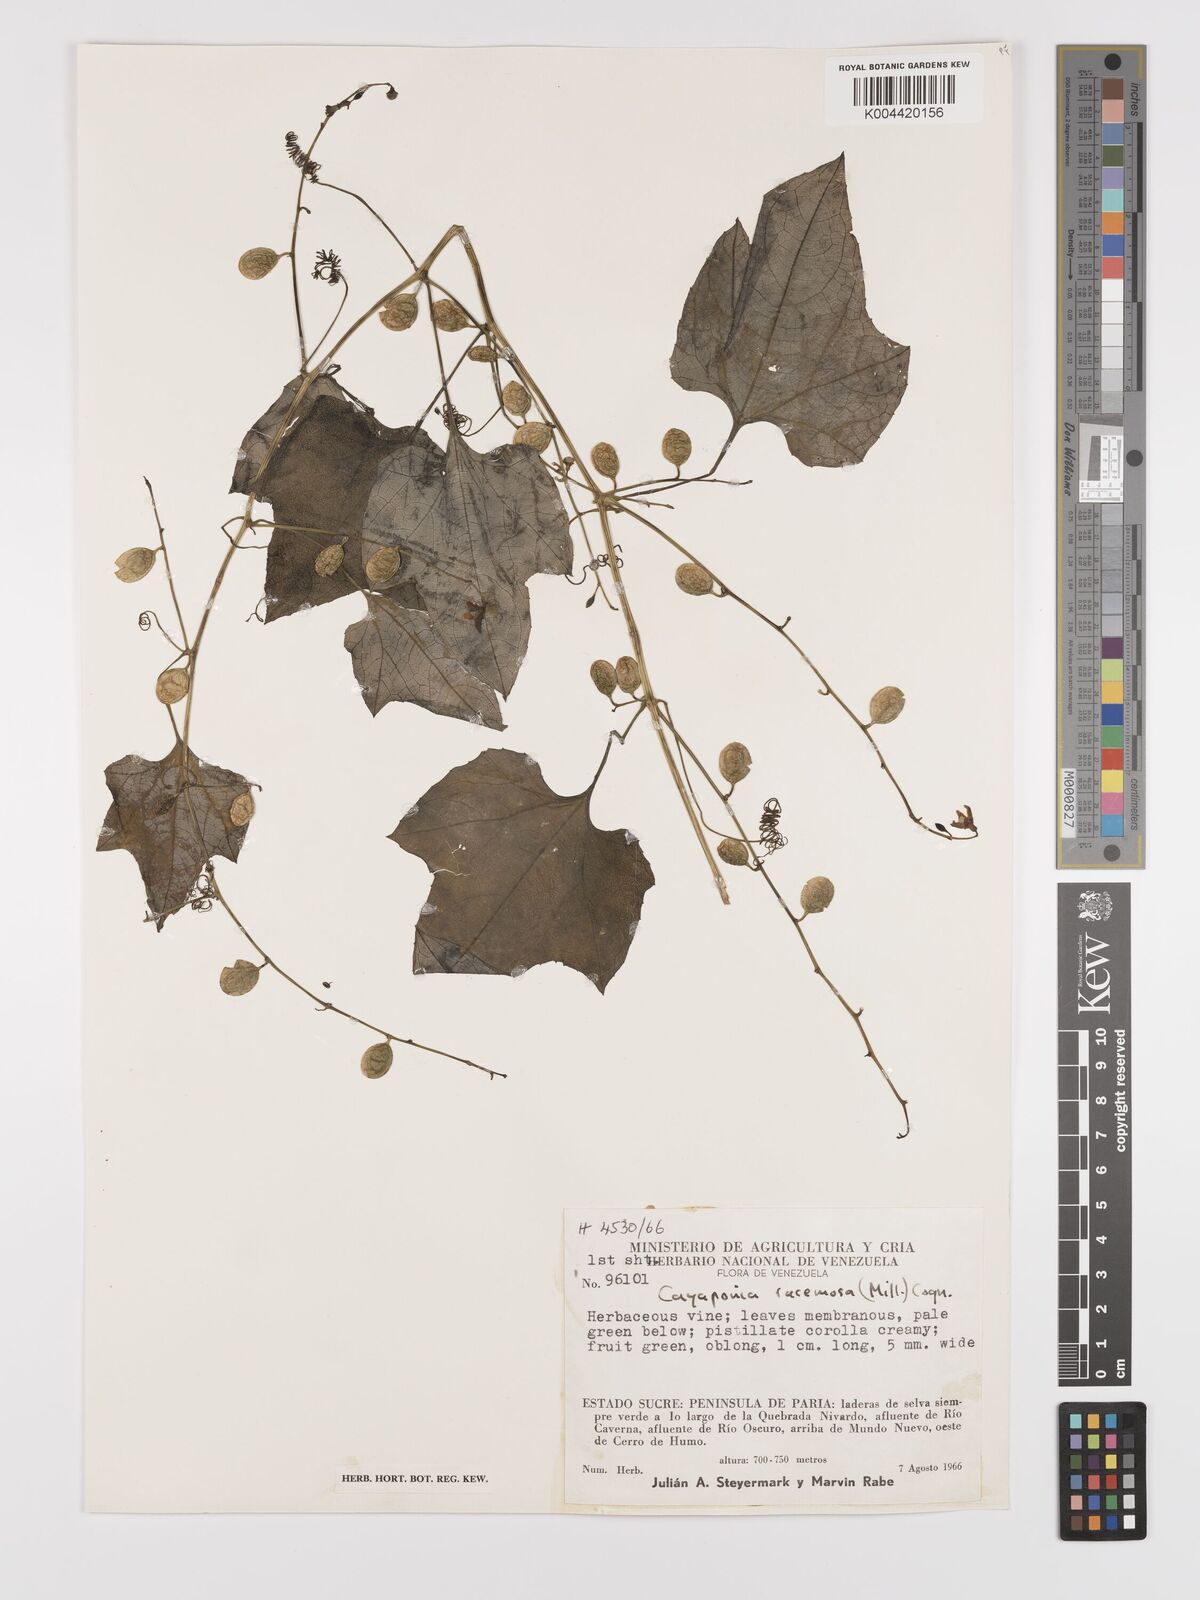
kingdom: Plantae
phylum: Tracheophyta
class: Magnoliopsida
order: Cucurbitales
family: Cucurbitaceae
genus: Cayaponia
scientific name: Cayaponia racemosa
